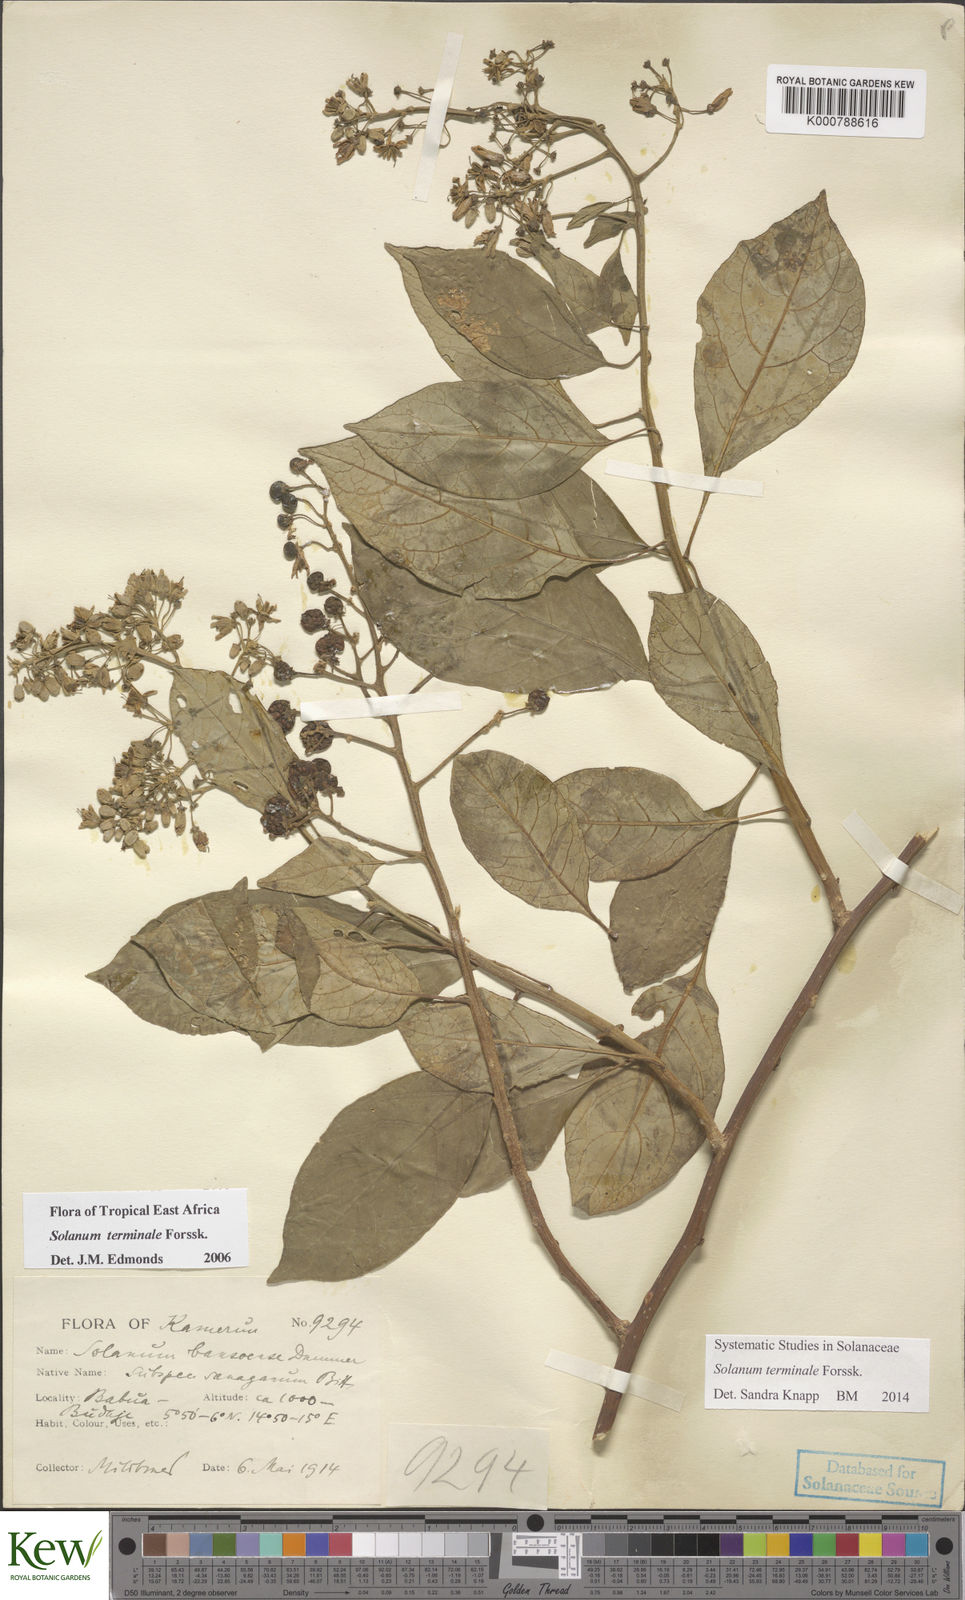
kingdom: Plantae
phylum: Tracheophyta
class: Magnoliopsida
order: Solanales
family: Solanaceae
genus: Solanum
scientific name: Solanum terminale
